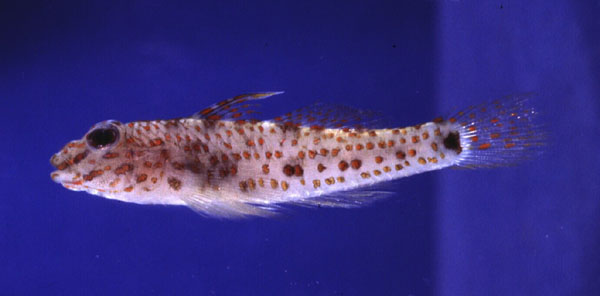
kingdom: Animalia
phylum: Chordata
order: Perciformes
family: Gobiidae
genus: Fusigobius
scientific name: Fusigobius longispinus
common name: Longspine goby
